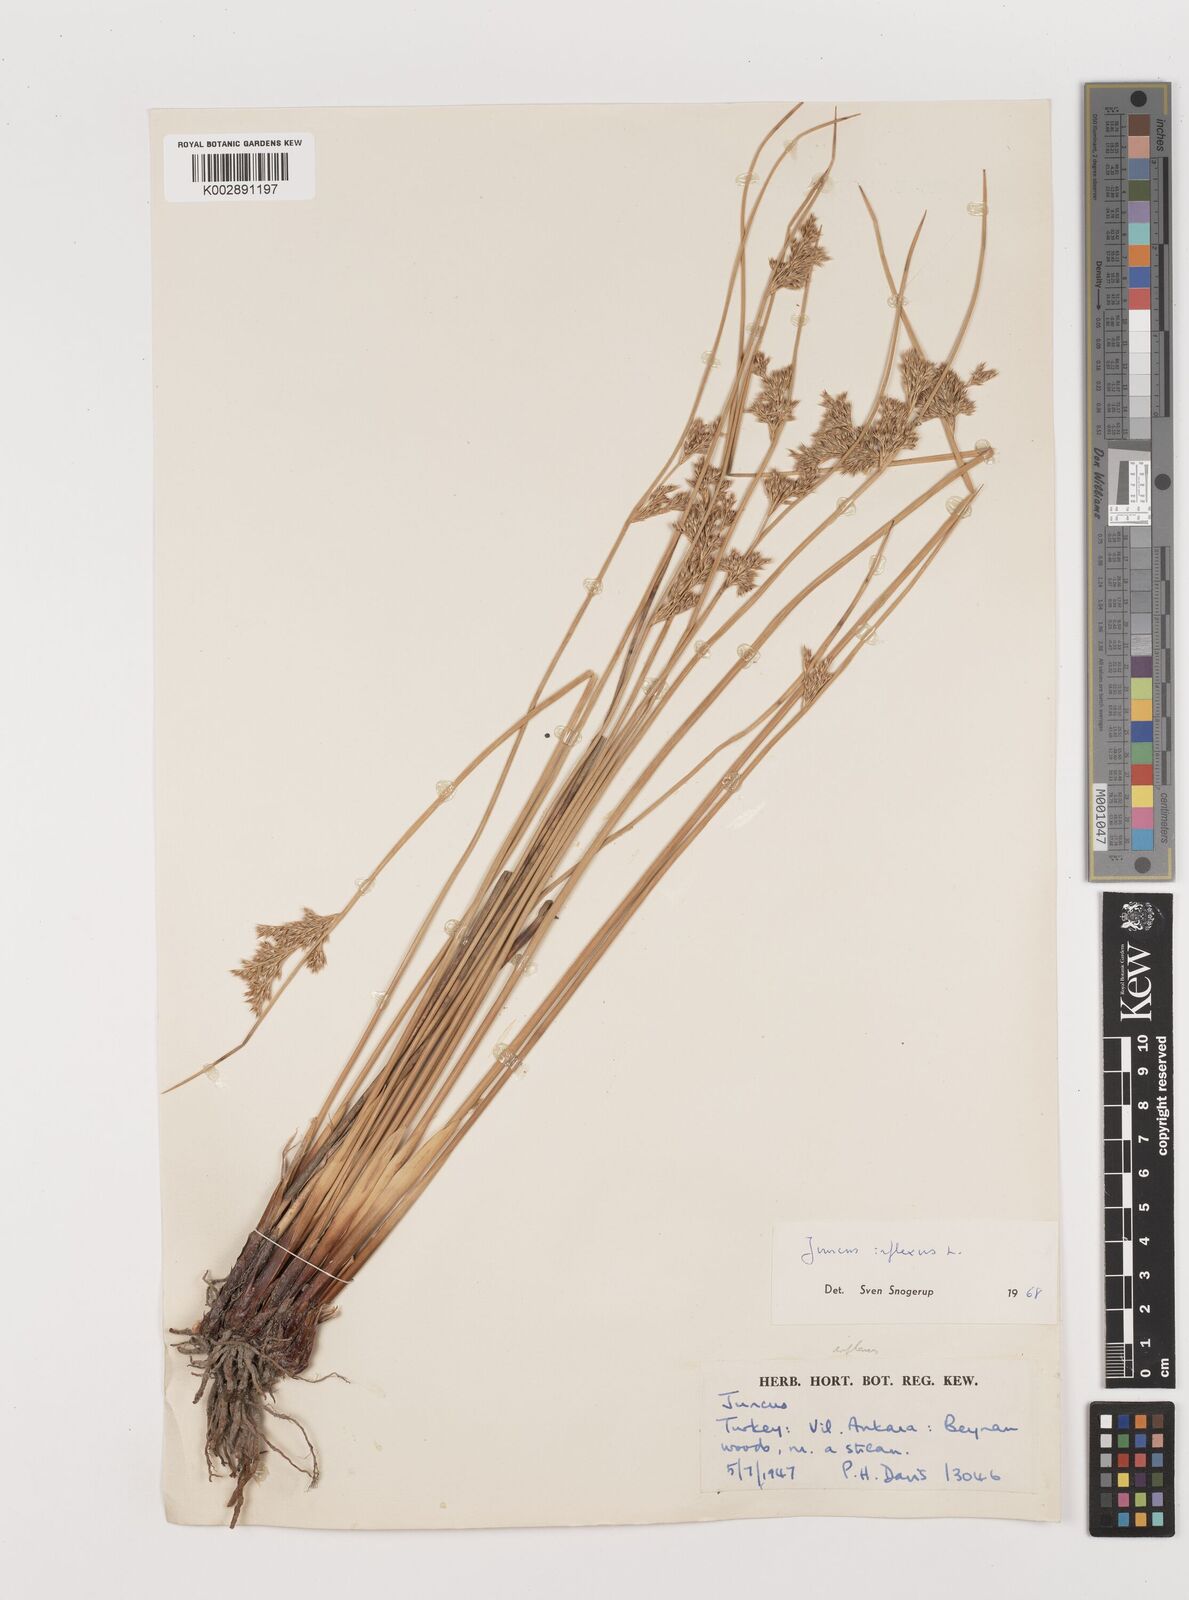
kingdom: Plantae
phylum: Tracheophyta
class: Liliopsida
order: Poales
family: Juncaceae
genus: Juncus
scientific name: Juncus inflexus
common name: Hard rush
